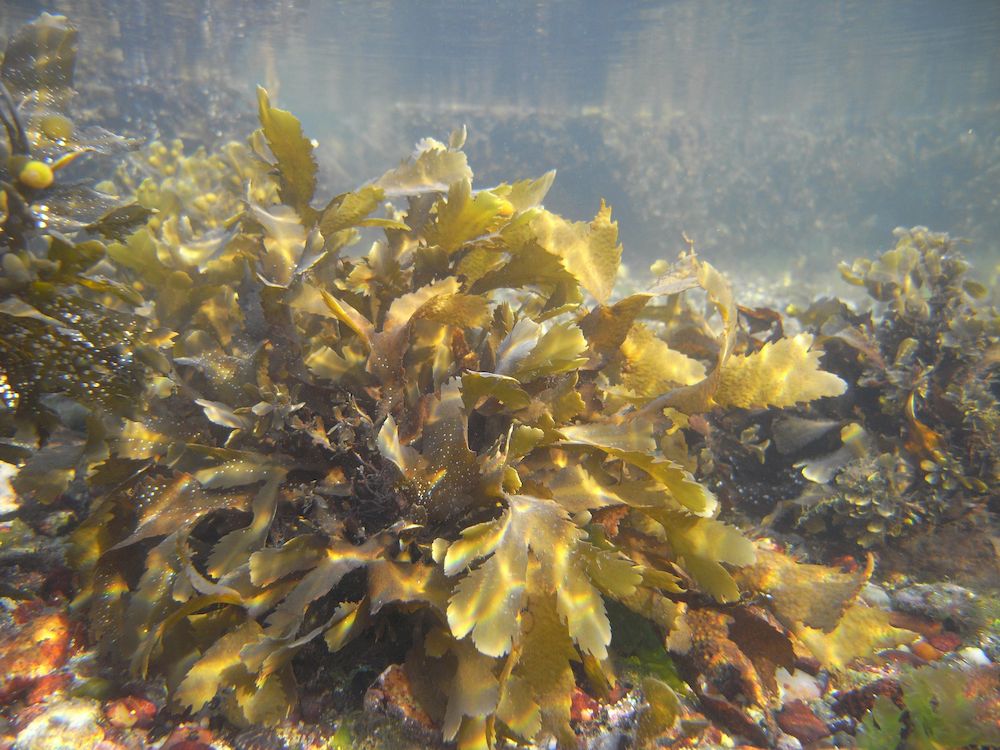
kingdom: Chromista
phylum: Ochrophyta
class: Phaeophyceae
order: Fucales
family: Fucaceae
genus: Fucus
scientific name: Fucus serratus
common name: Toothed wrack
